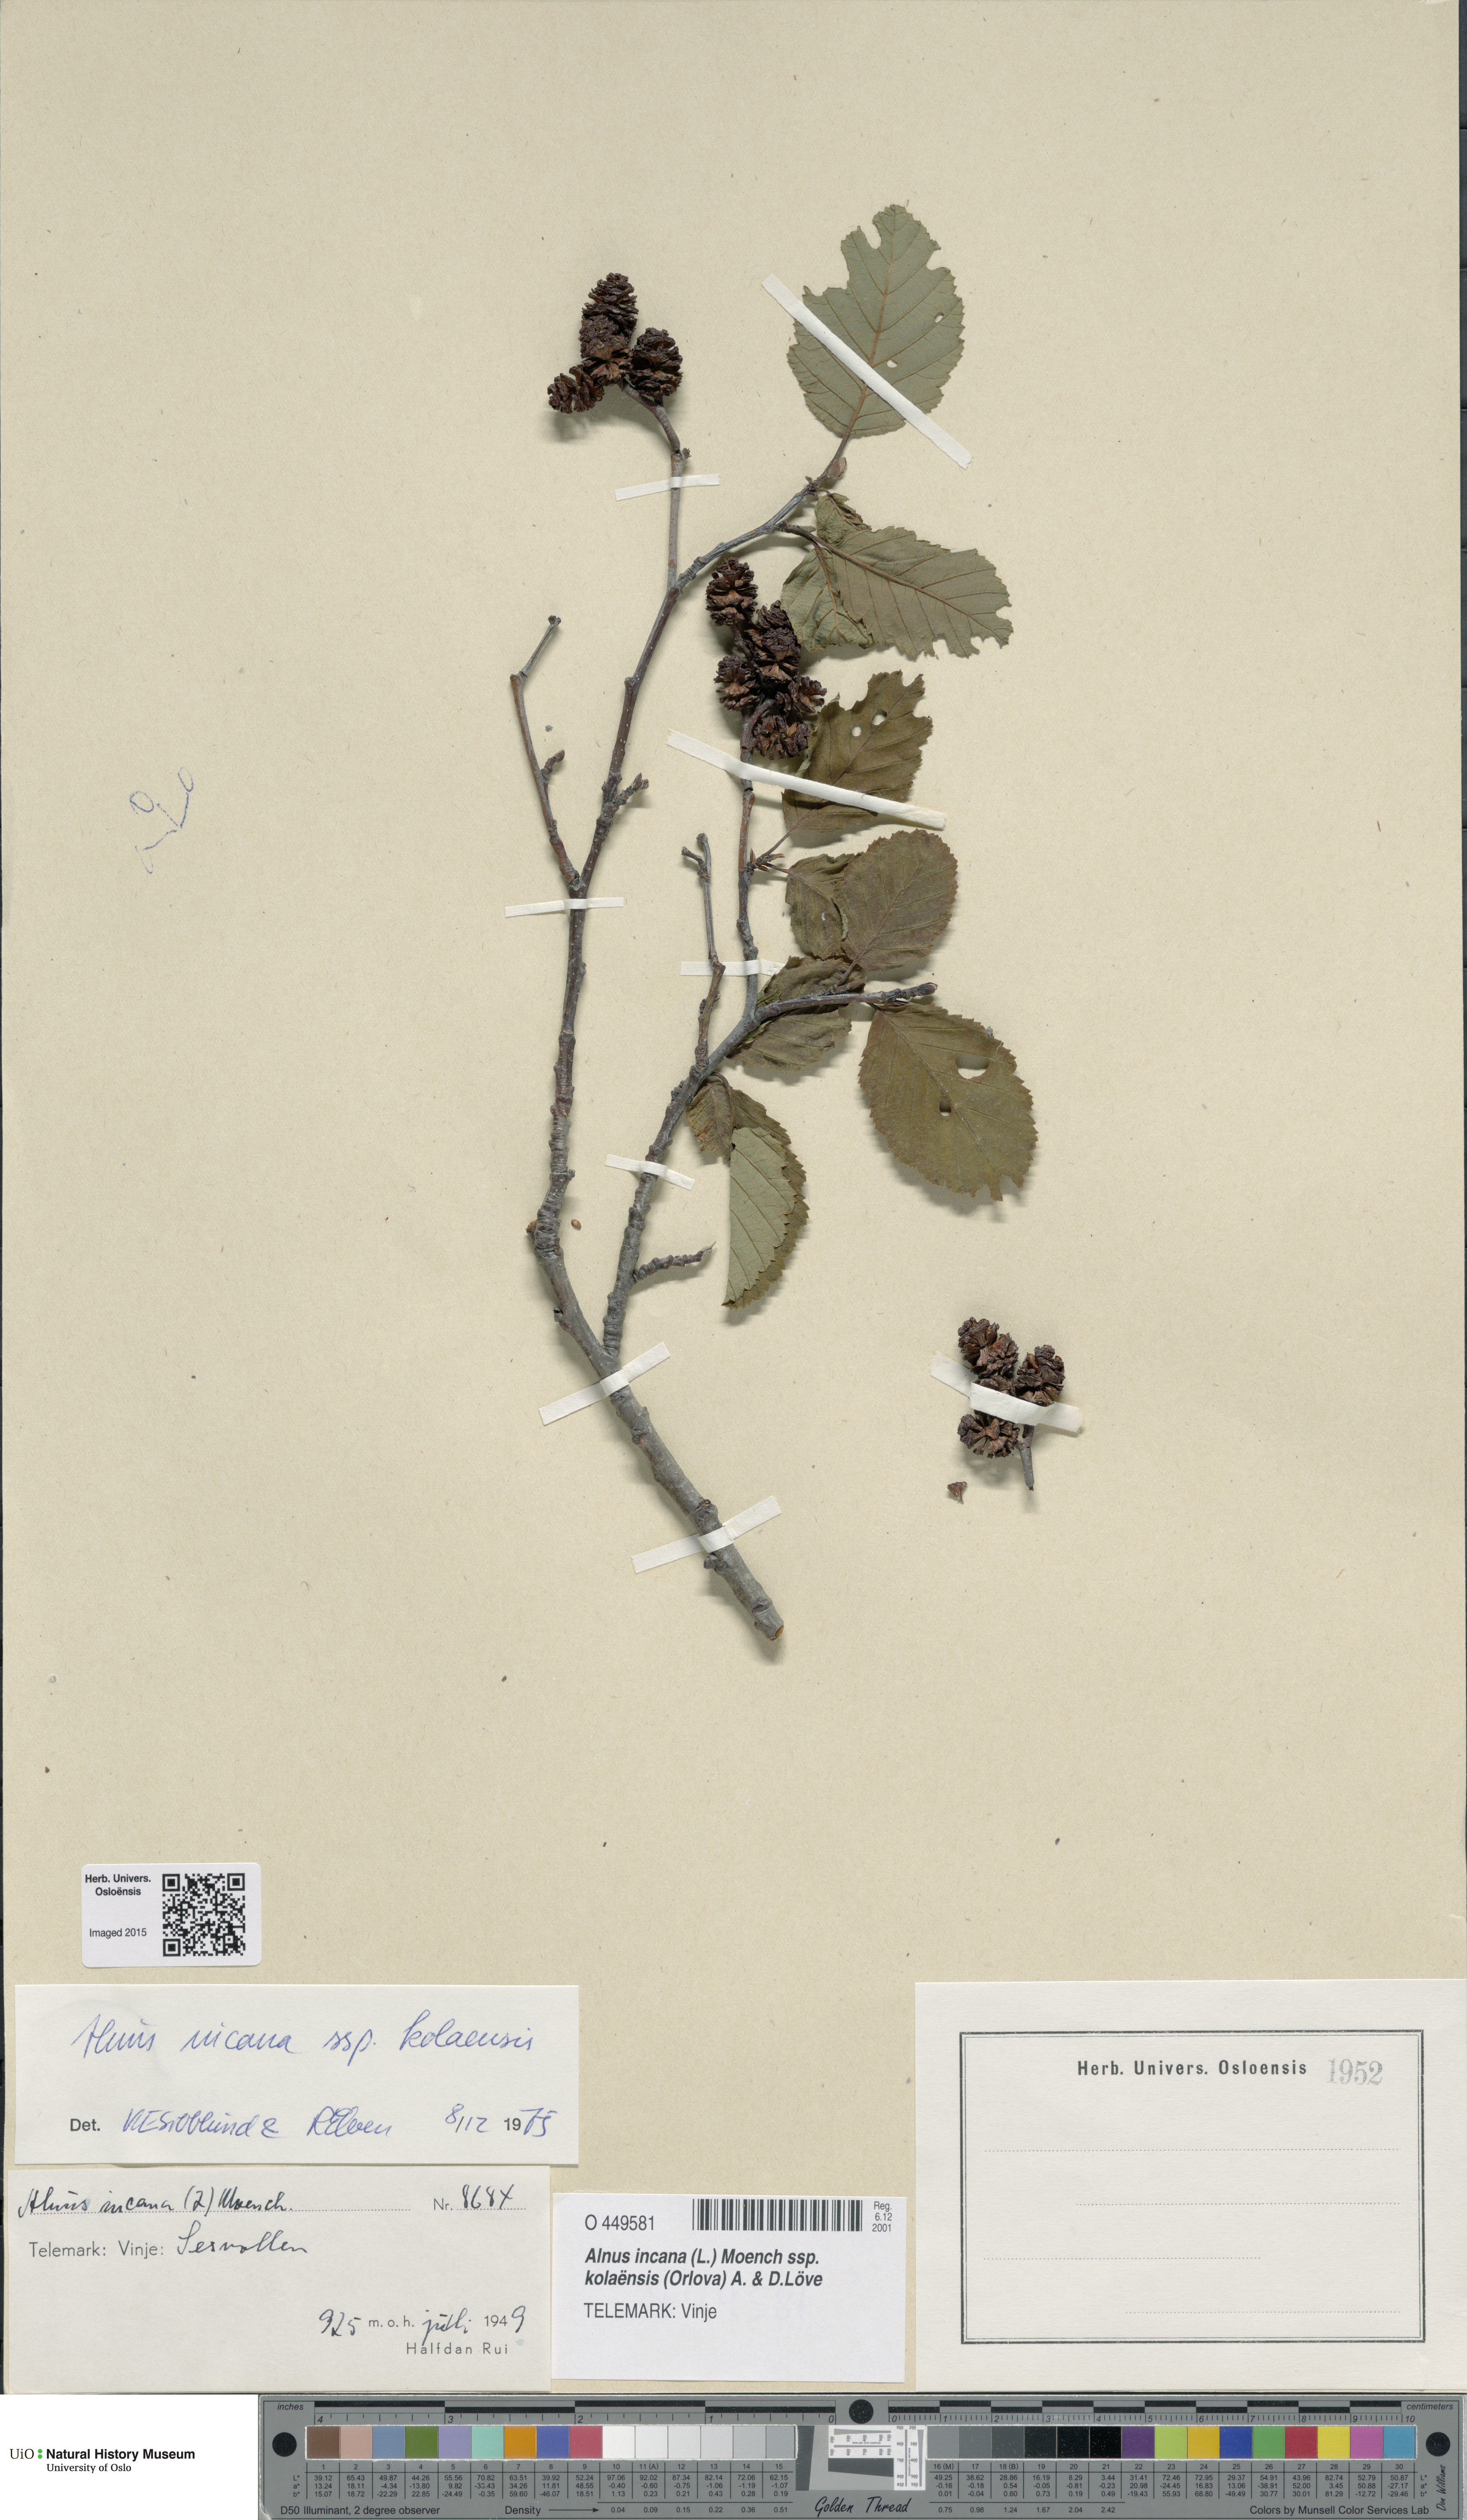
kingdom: Plantae
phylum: Tracheophyta
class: Magnoliopsida
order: Fagales
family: Betulaceae
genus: Alnus
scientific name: Alnus incana
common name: Grey alder
